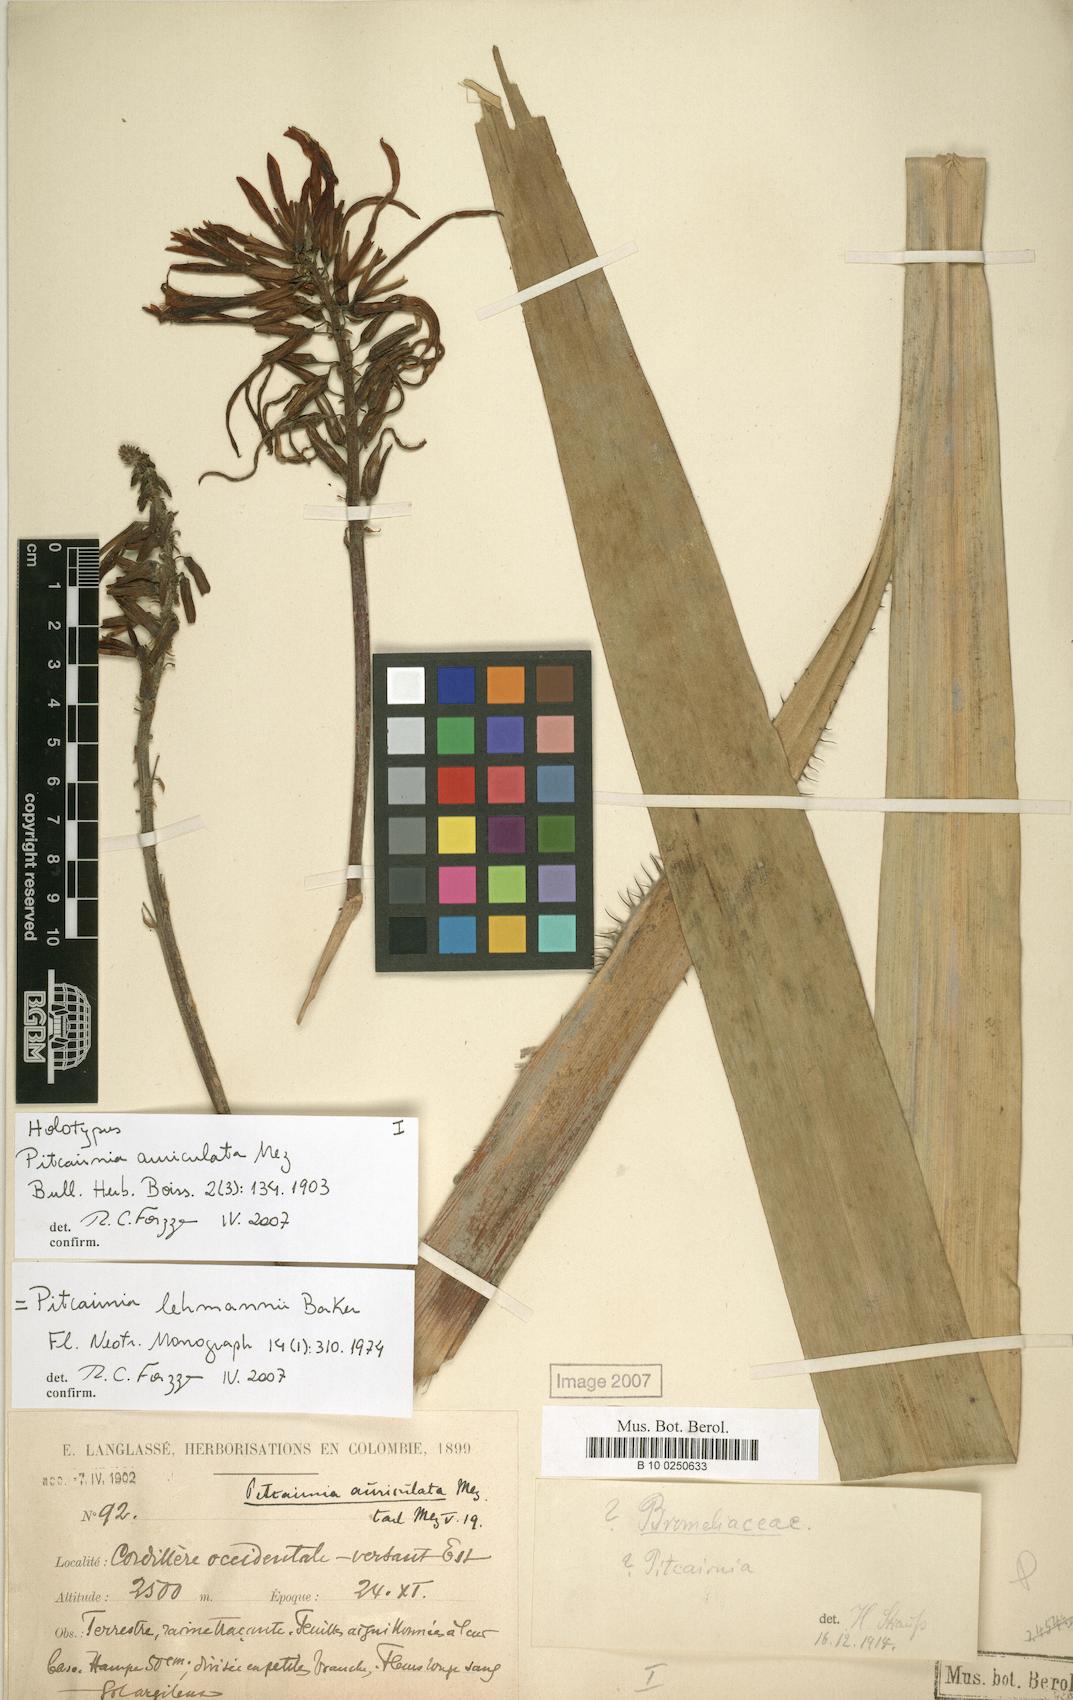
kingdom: Plantae
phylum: Tracheophyta
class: Liliopsida
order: Poales
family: Bromeliaceae
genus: Pitcairnia
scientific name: Pitcairnia lehmannii
